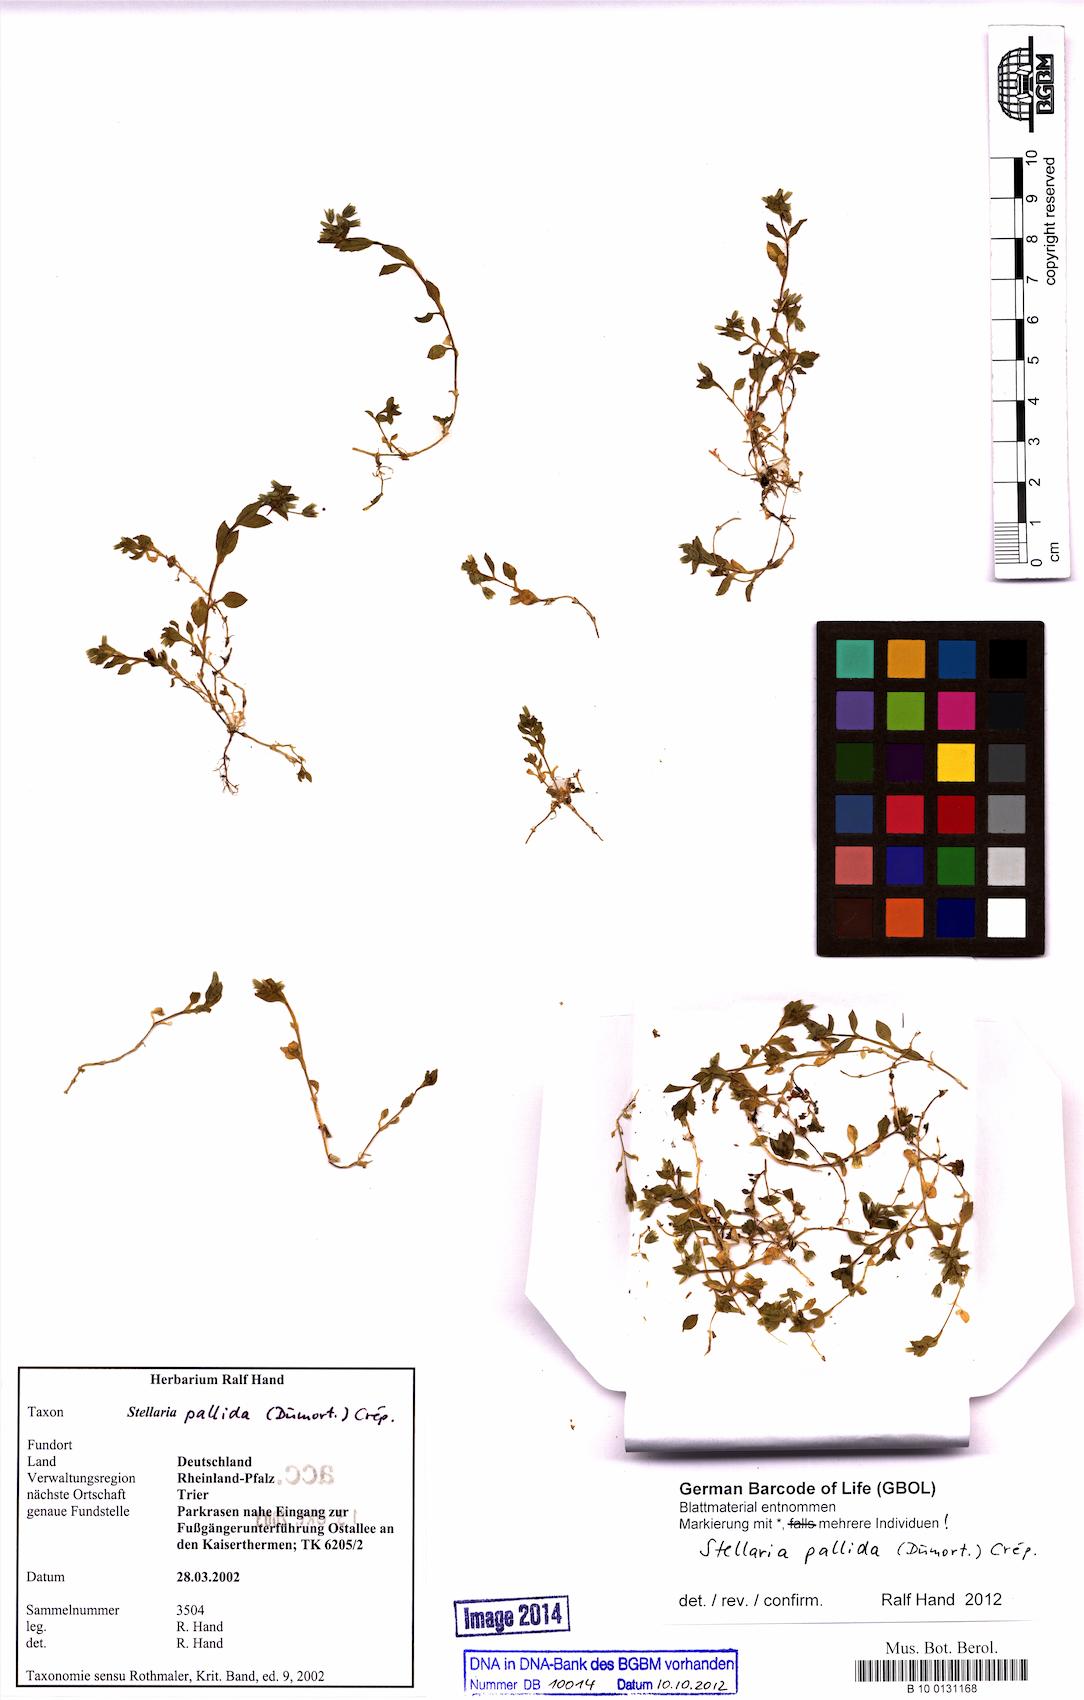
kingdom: Plantae
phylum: Tracheophyta
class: Magnoliopsida
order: Caryophyllales
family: Caryophyllaceae
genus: Stellaria
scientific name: Stellaria apetala
